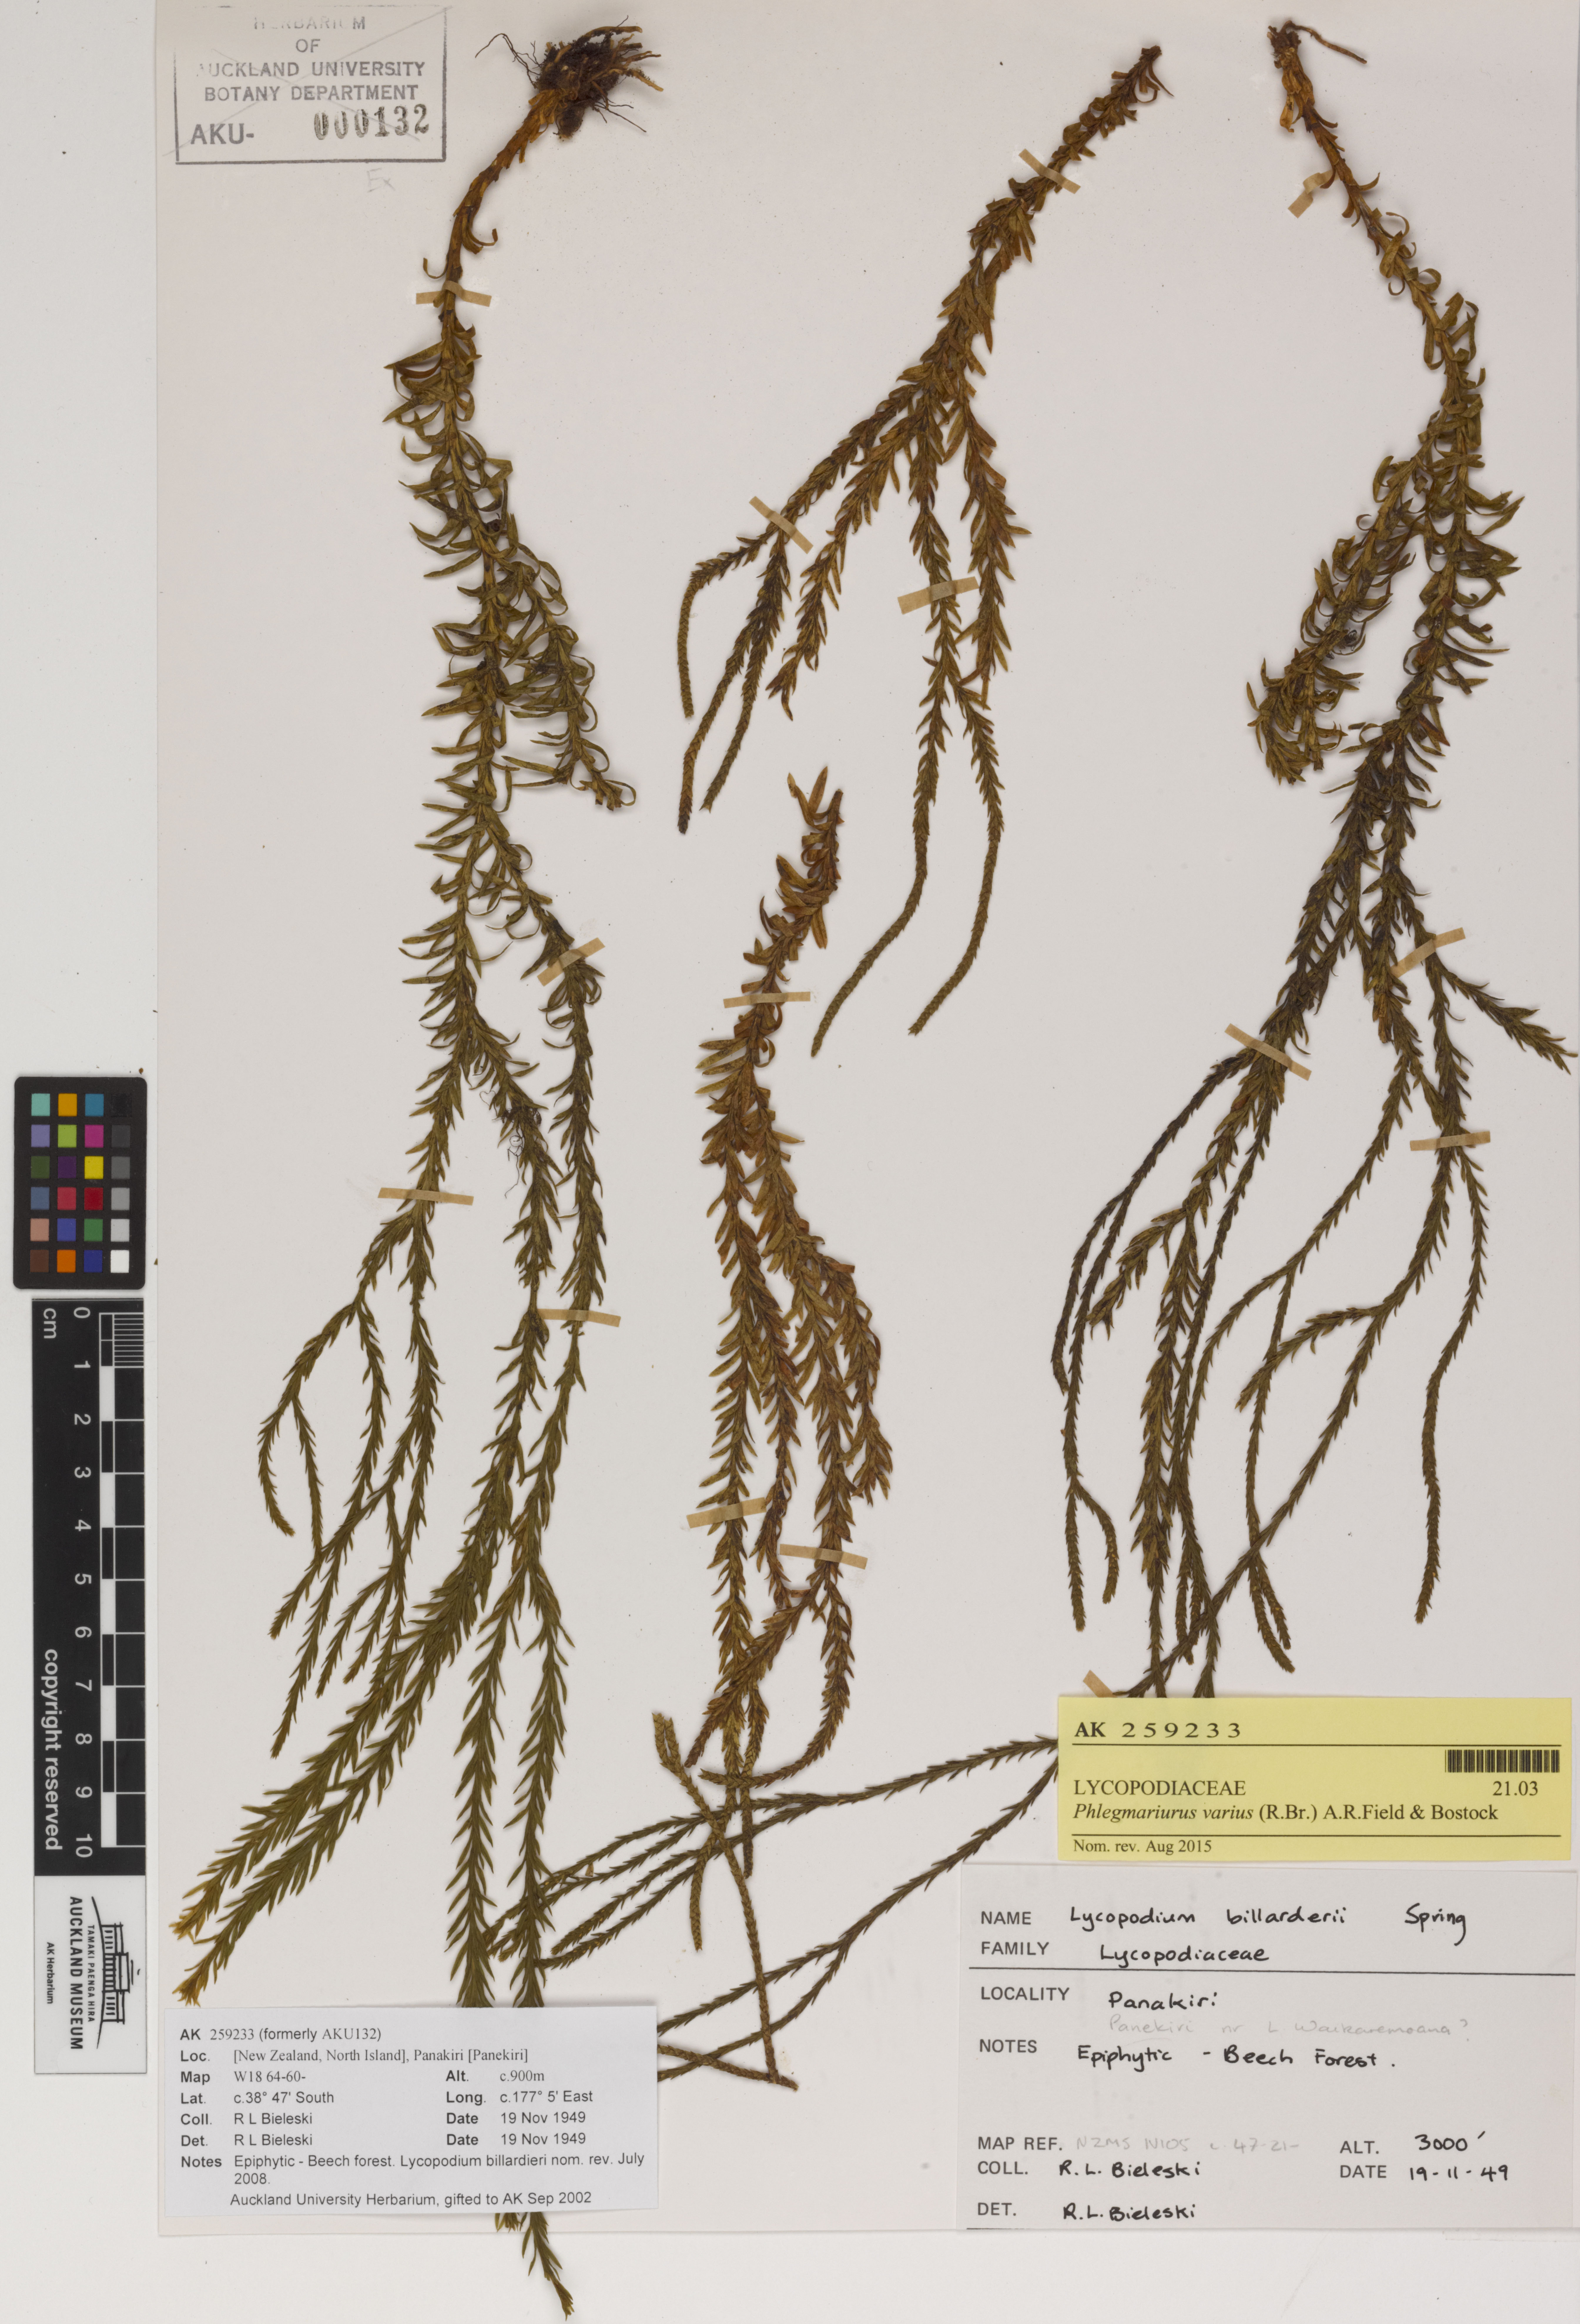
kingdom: Plantae
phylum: Tracheophyta
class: Lycopodiopsida
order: Lycopodiales
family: Lycopodiaceae
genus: Phlegmariurus
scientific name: Phlegmariurus billardierei
